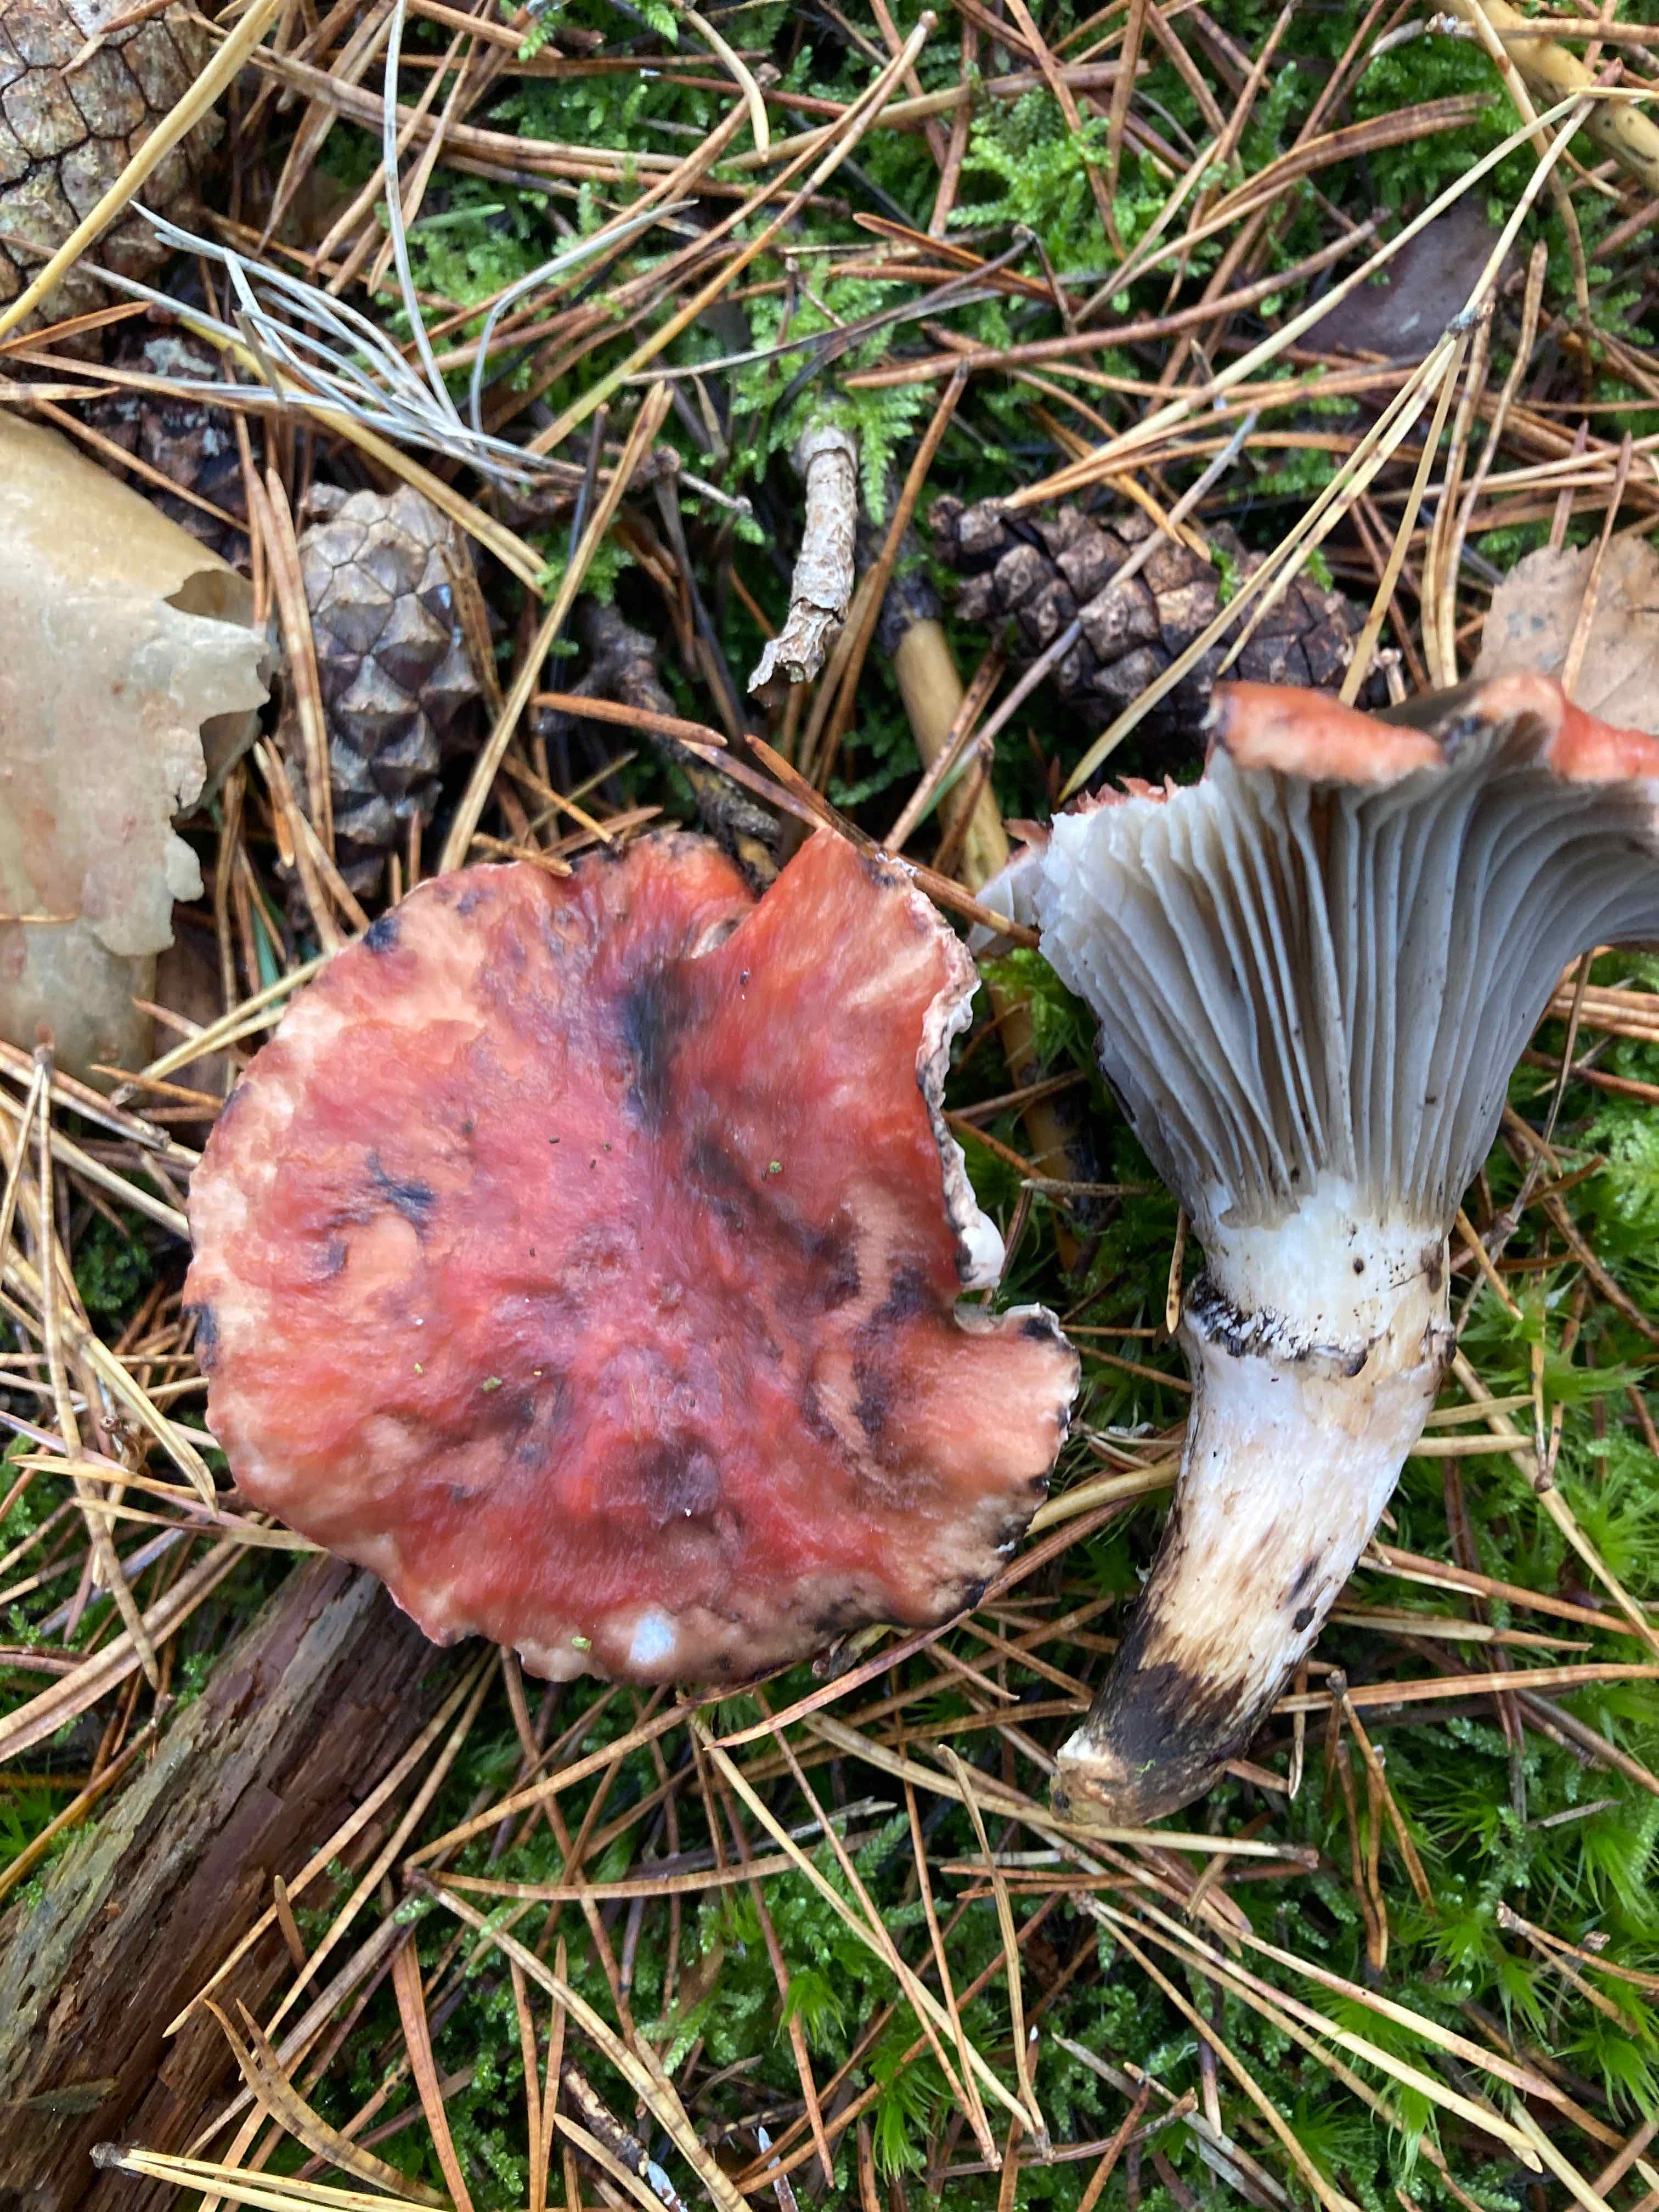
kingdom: Fungi
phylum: Basidiomycota
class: Agaricomycetes
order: Boletales
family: Gomphidiaceae
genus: Gomphidius
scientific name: Gomphidius roseus
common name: rosenrød slimslør
